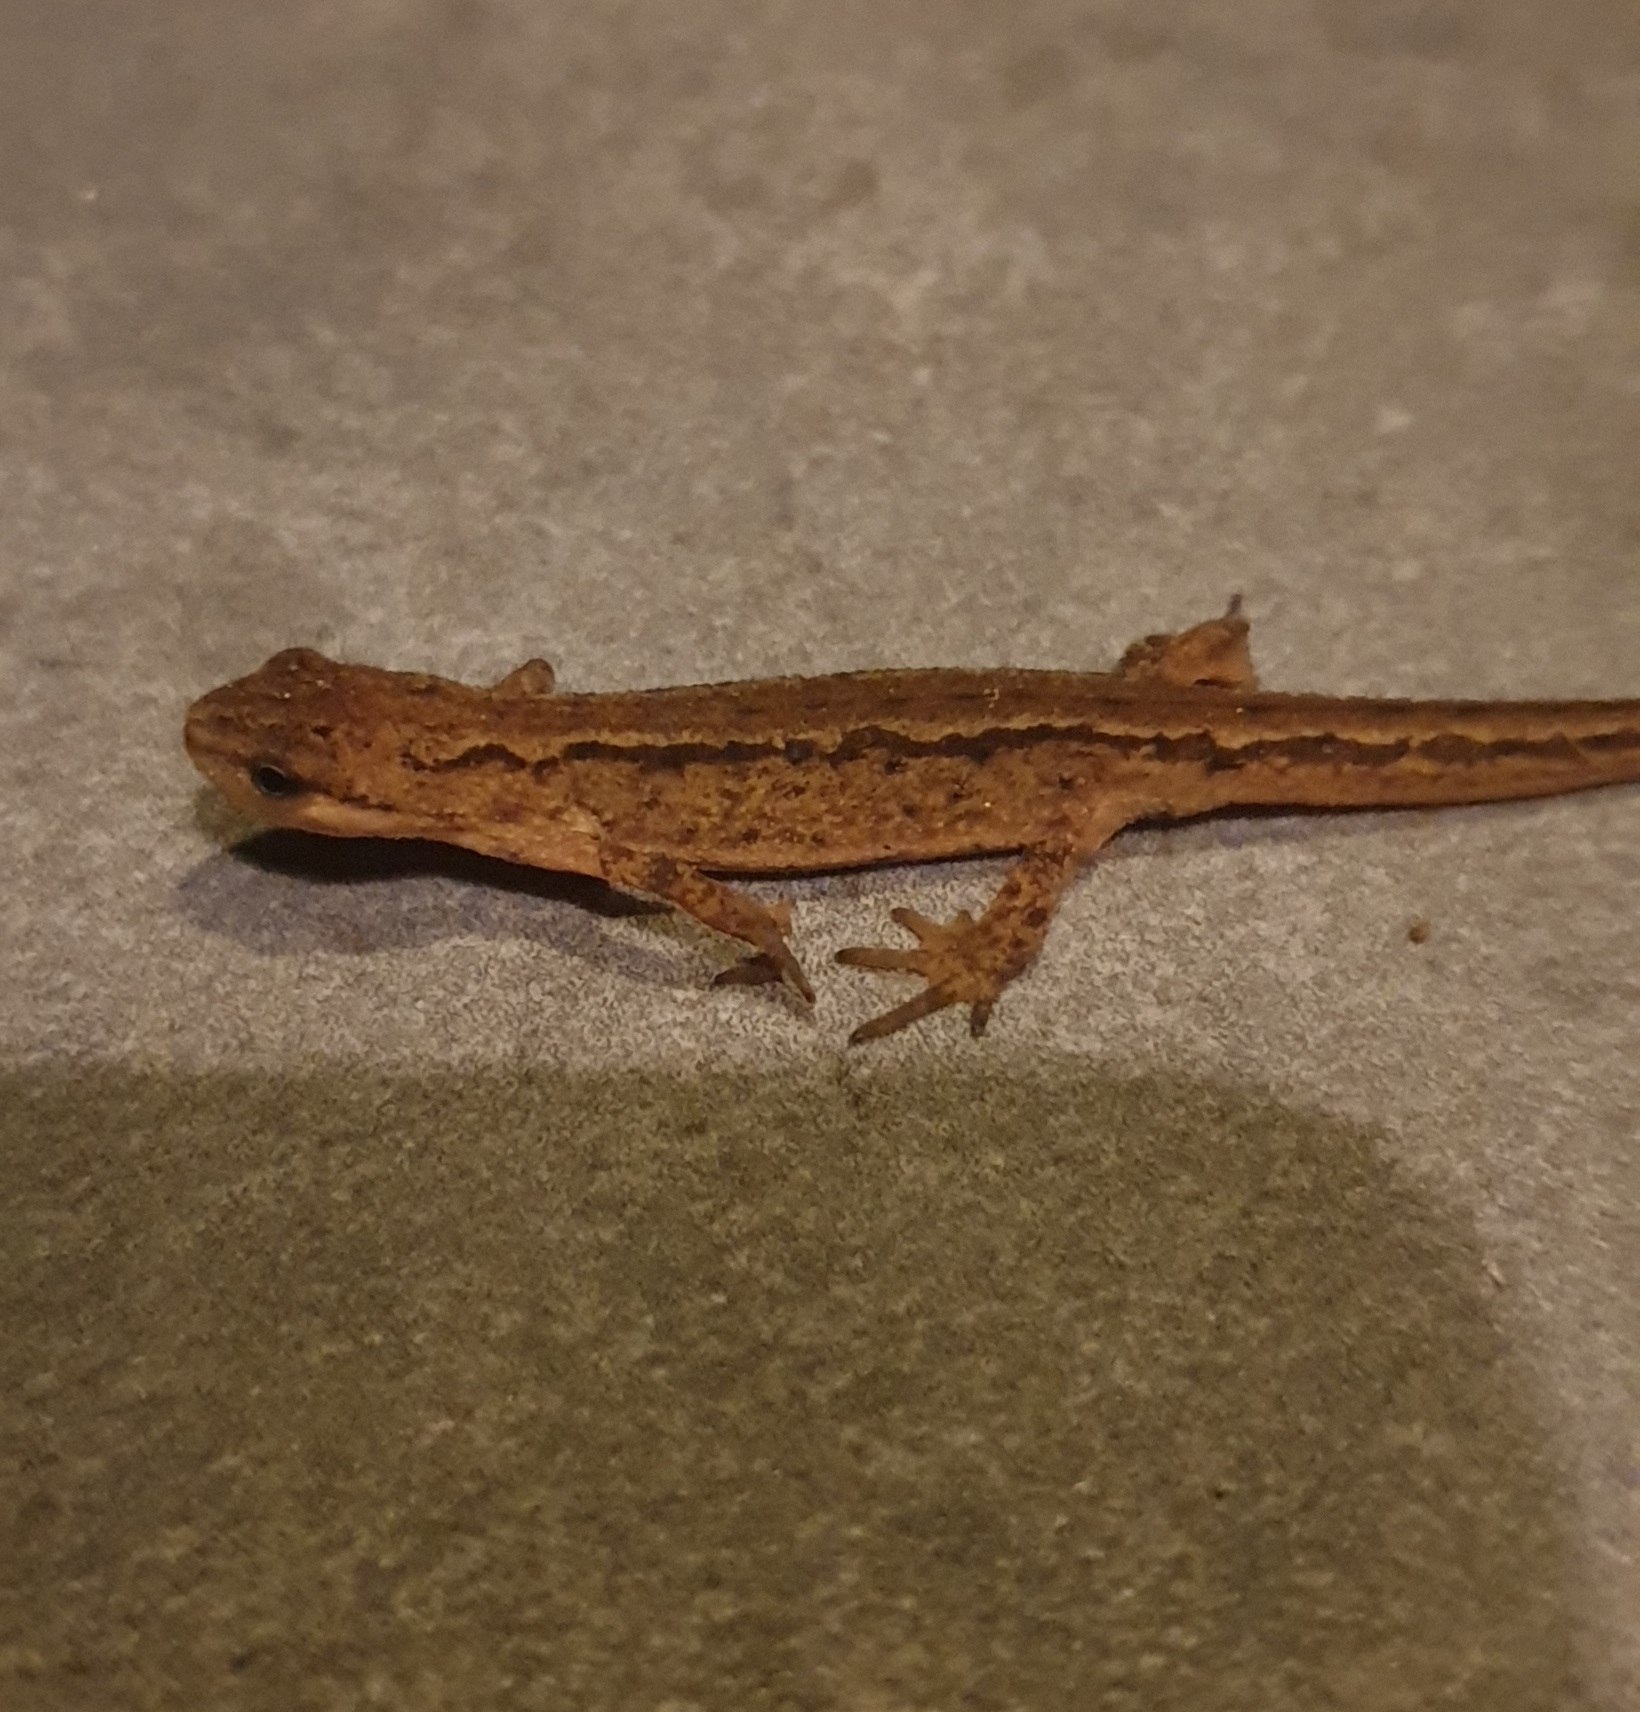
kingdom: Animalia
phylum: Chordata
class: Amphibia
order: Caudata
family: Salamandridae
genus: Lissotriton
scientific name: Lissotriton vulgaris
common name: Lille vandsalamander
